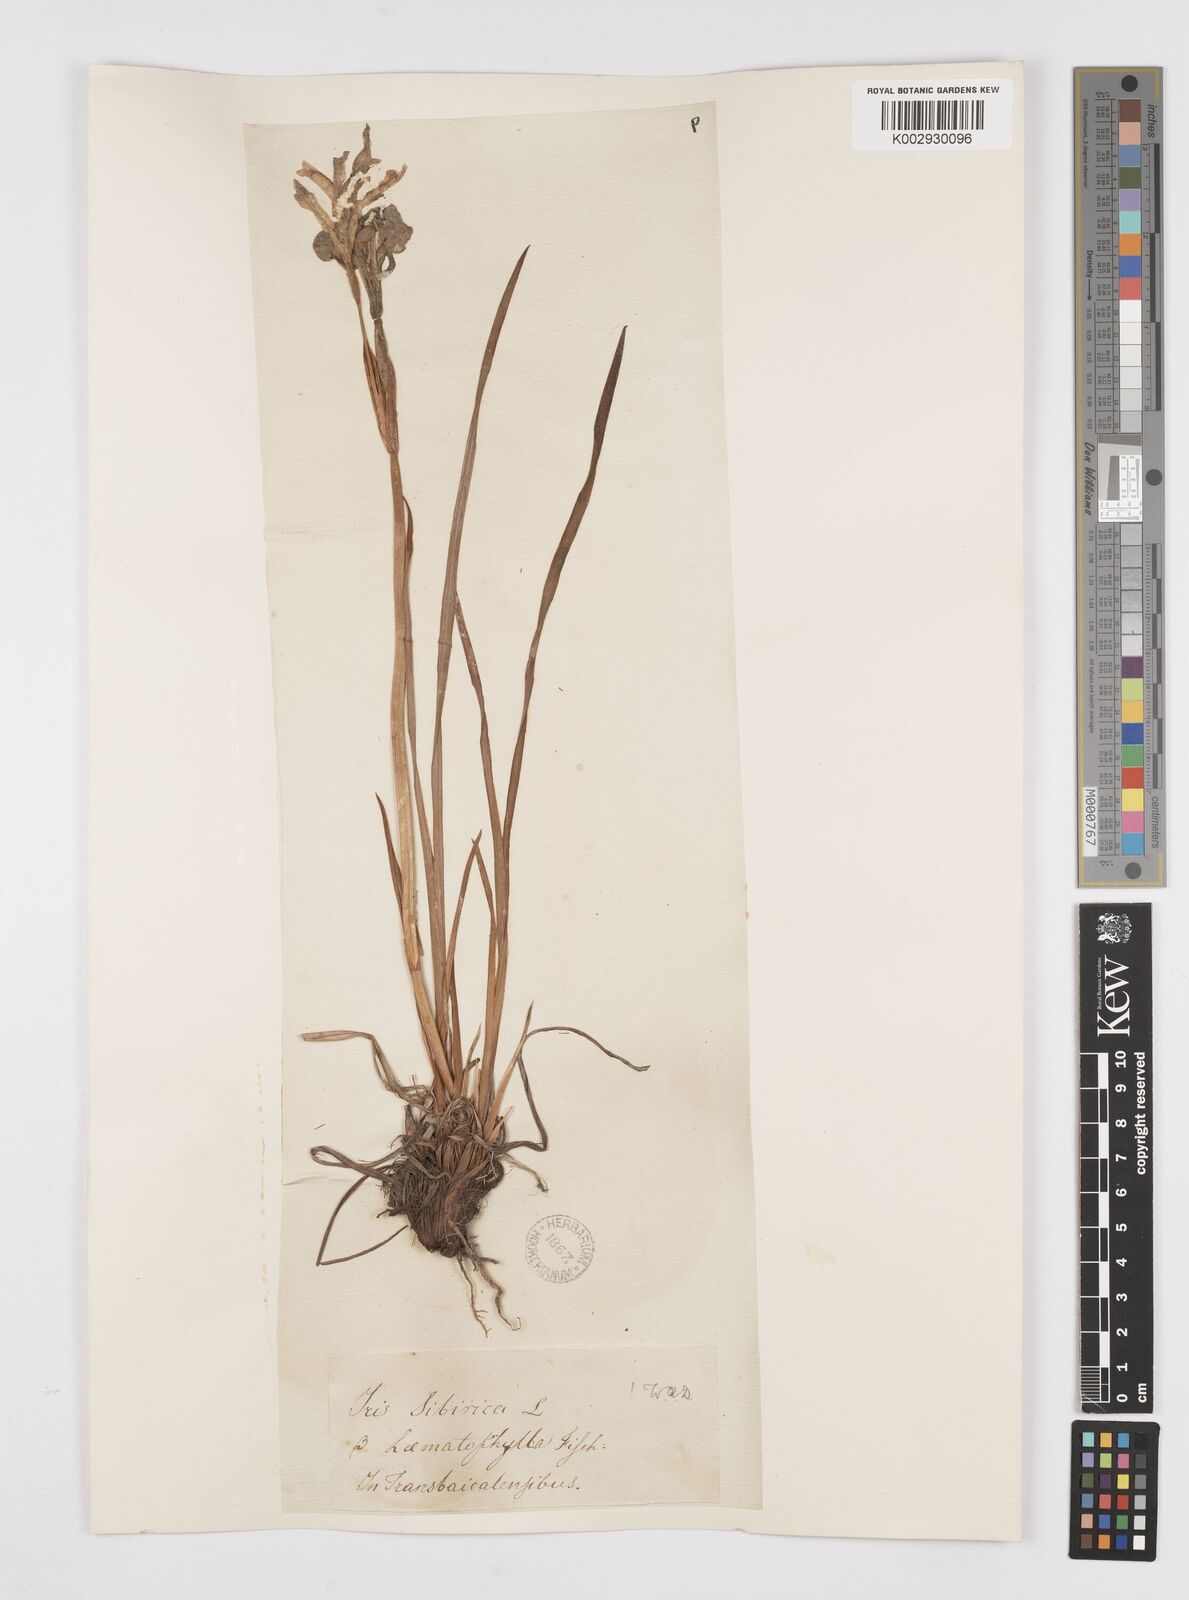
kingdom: Plantae
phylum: Tracheophyta
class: Liliopsida
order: Asparagales
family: Iridaceae
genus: Iris
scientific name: Iris sanguinea
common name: Blood iris
